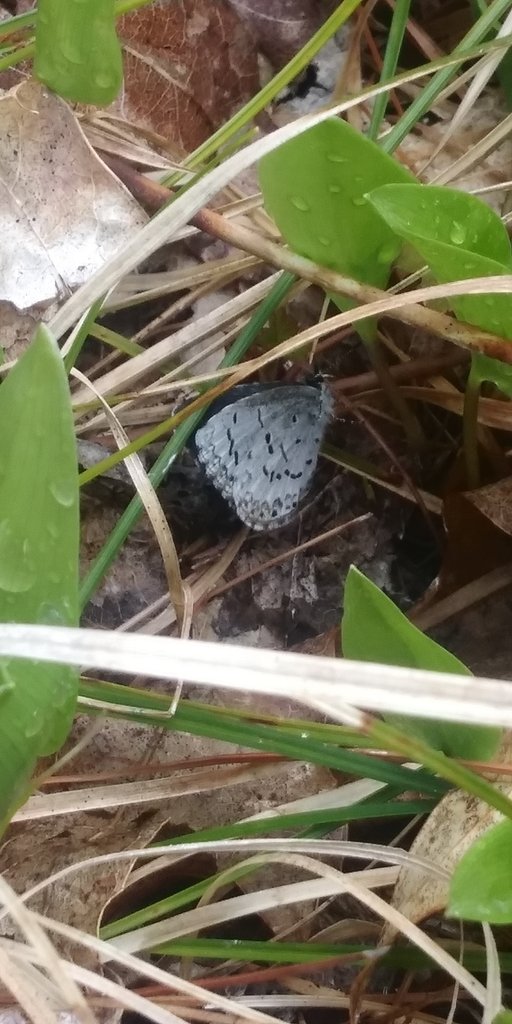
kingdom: Animalia
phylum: Arthropoda
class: Insecta
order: Lepidoptera
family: Lycaenidae
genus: Celastrina
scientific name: Celastrina lucia
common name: Northern Spring Azure
